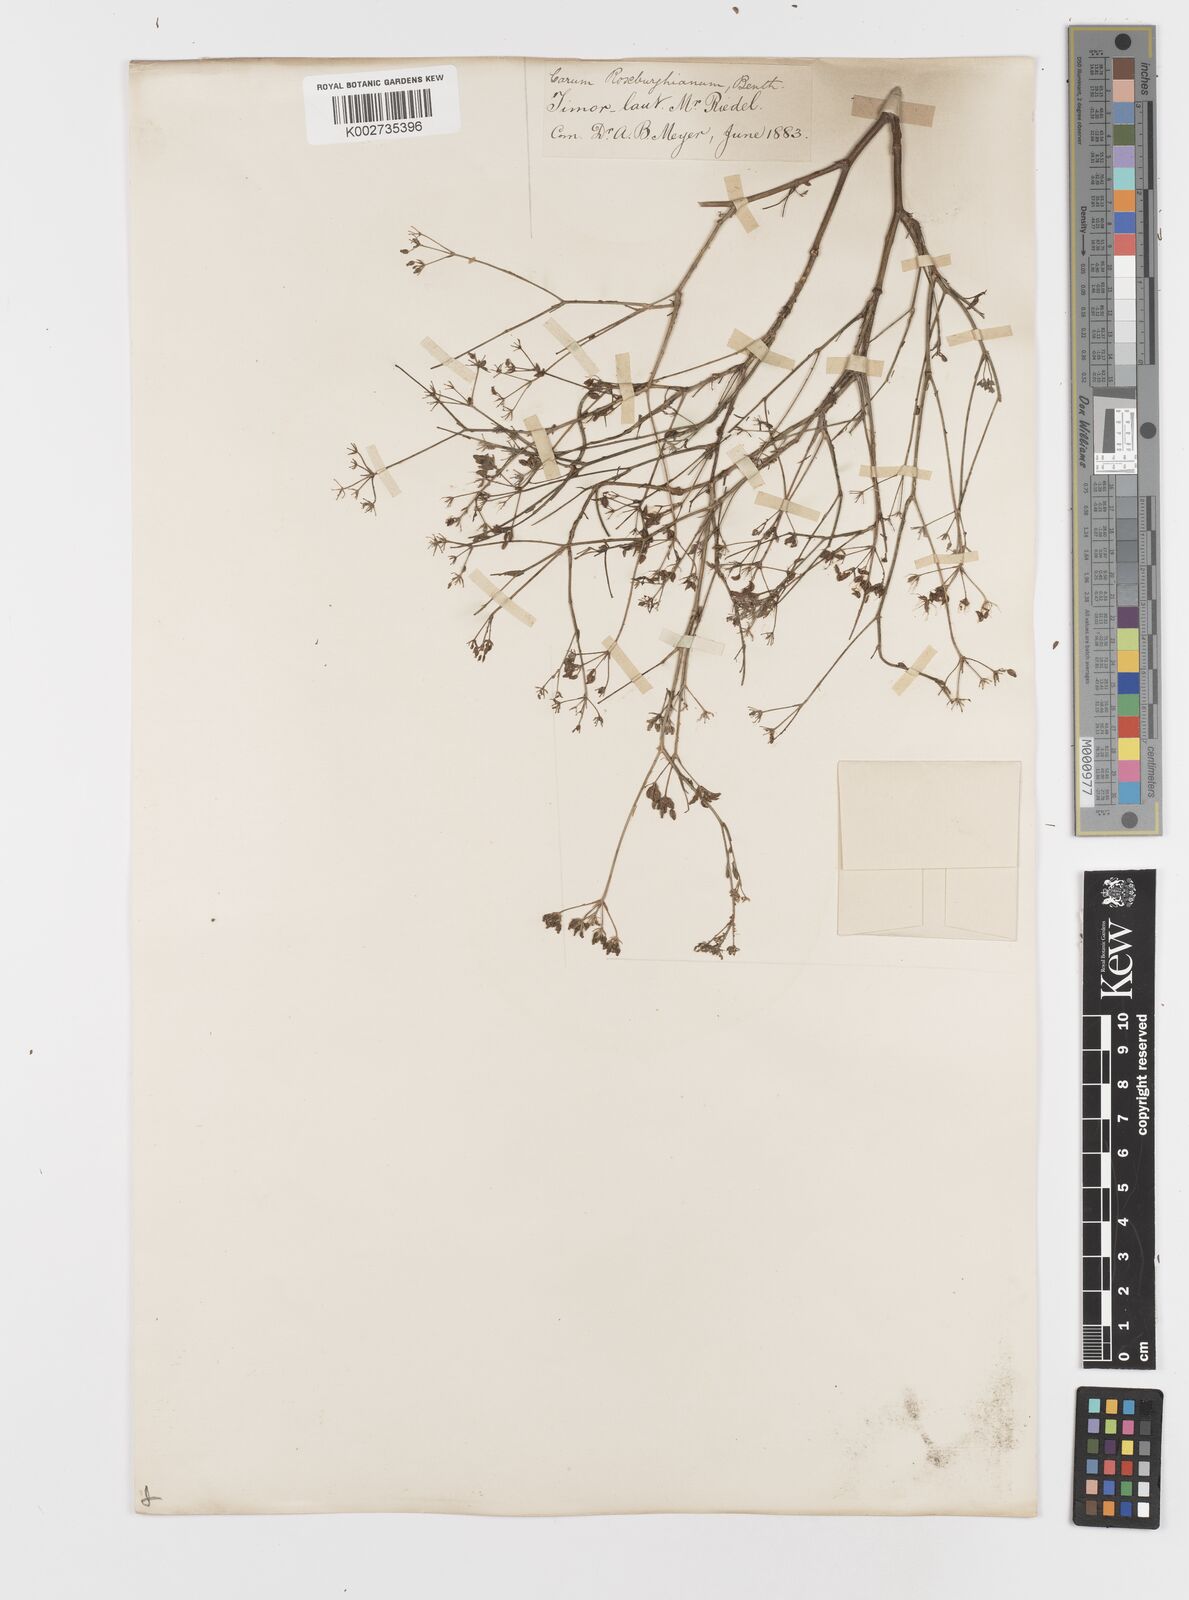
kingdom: Plantae
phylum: Tracheophyta
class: Magnoliopsida
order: Apiales
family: Apiaceae
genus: Psammogeton
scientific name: Psammogeton involucratum
